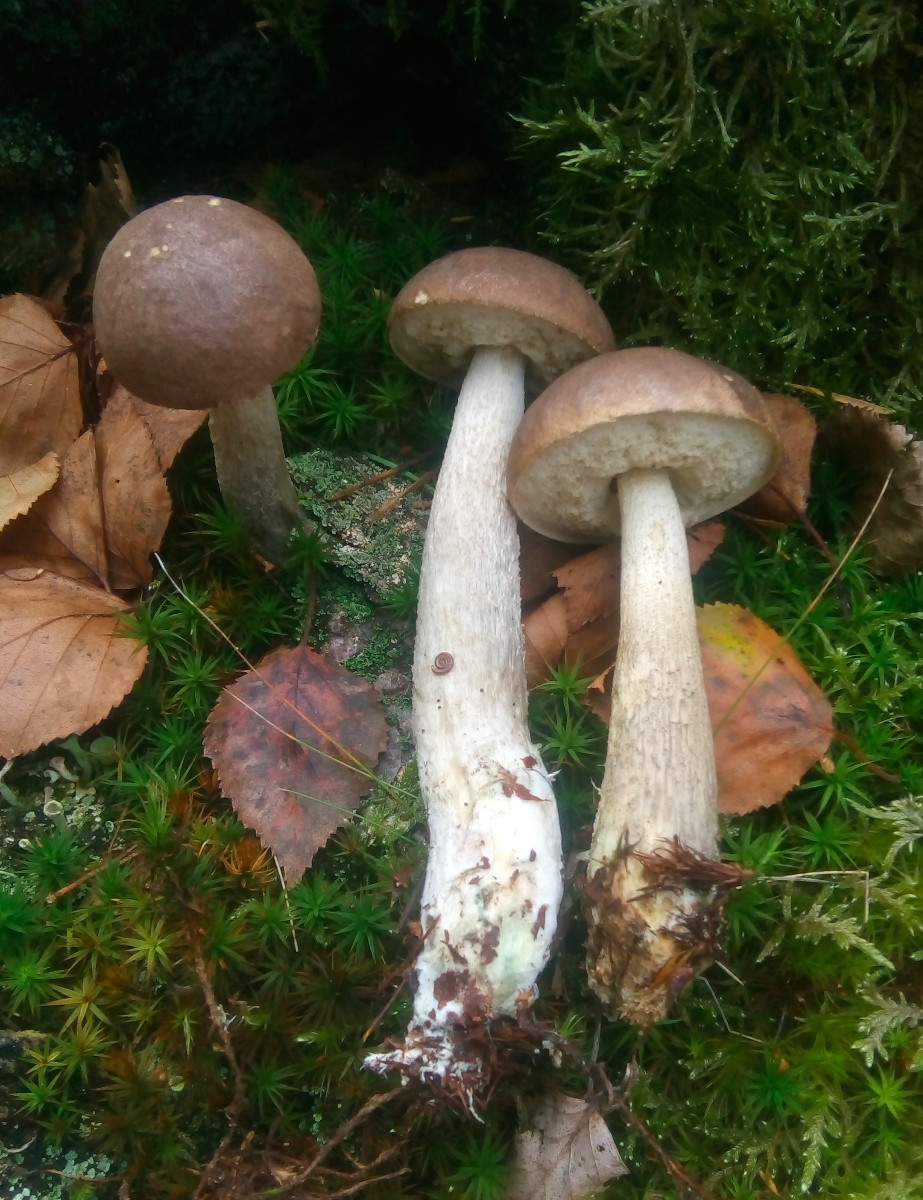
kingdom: Fungi
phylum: Basidiomycota
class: Agaricomycetes
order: Boletales
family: Boletaceae
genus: Leccinum
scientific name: Leccinum cyaneobasileucum
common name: almindelig skælrørhat
